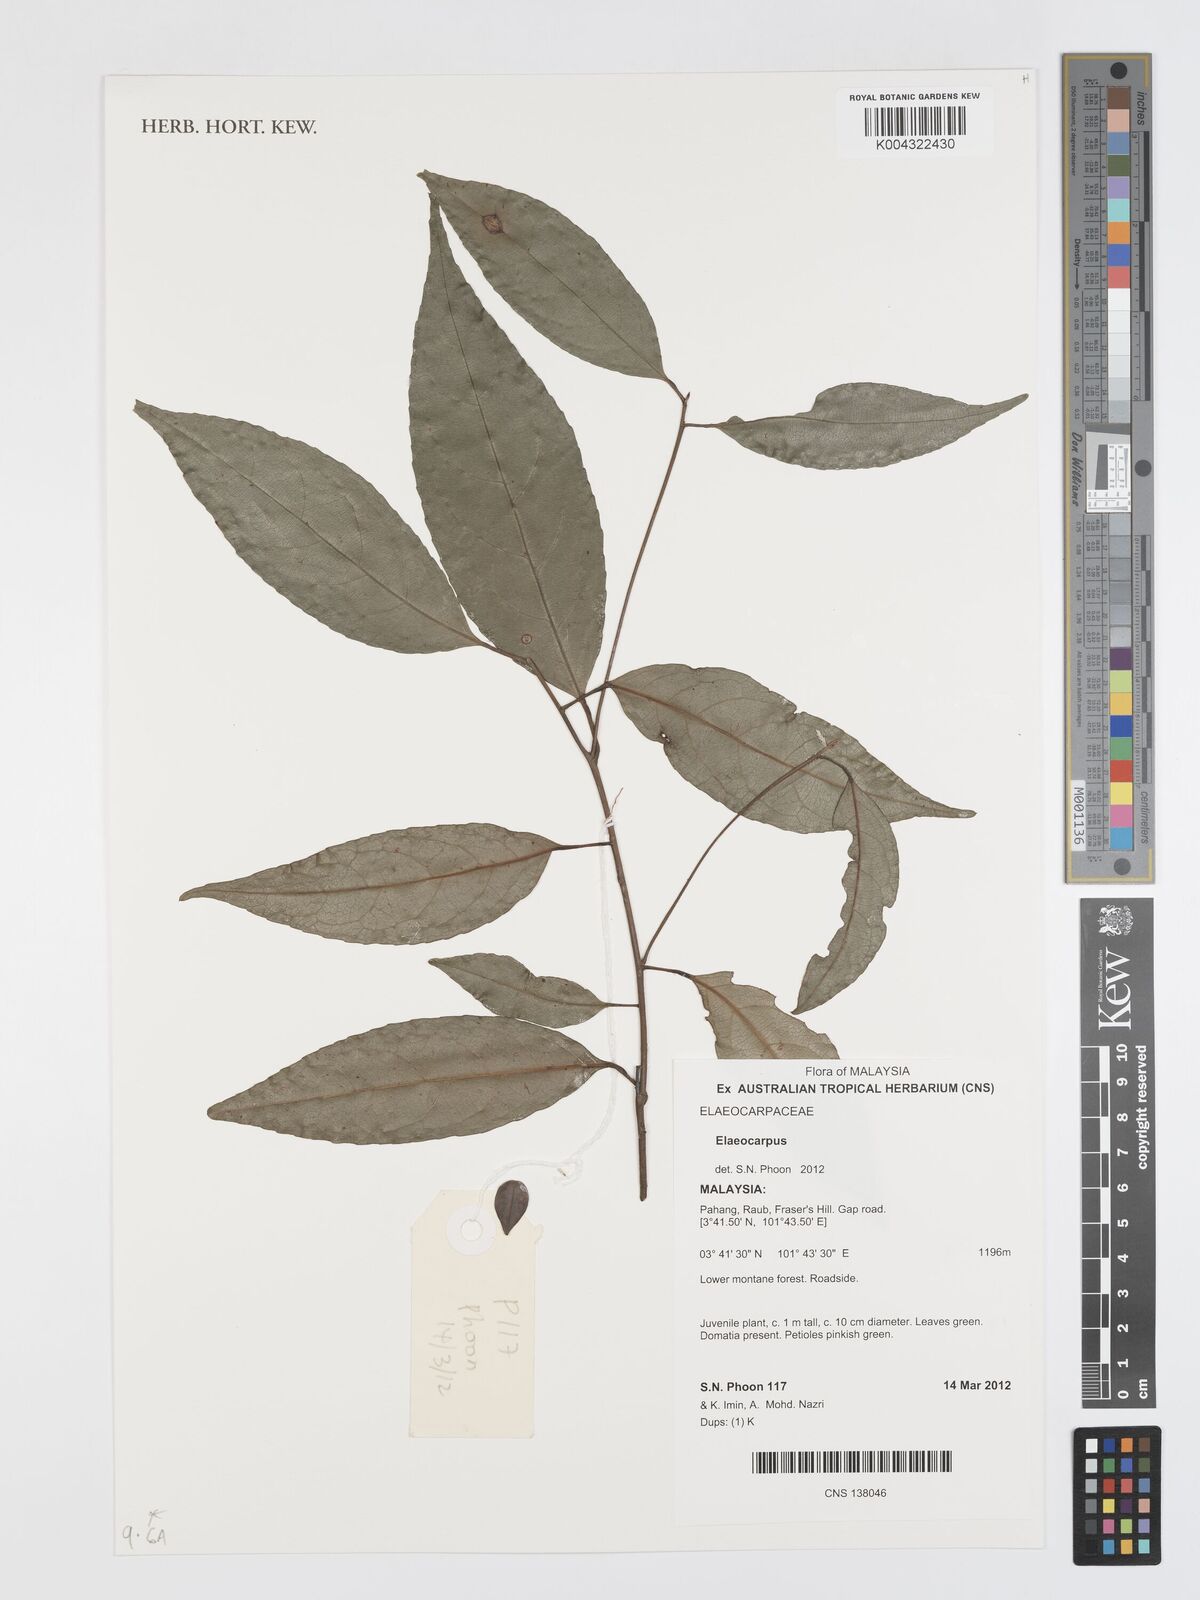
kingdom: Plantae
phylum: Tracheophyta
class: Magnoliopsida
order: Oxalidales
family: Elaeocarpaceae
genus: Elaeocarpus
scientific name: Elaeocarpus
